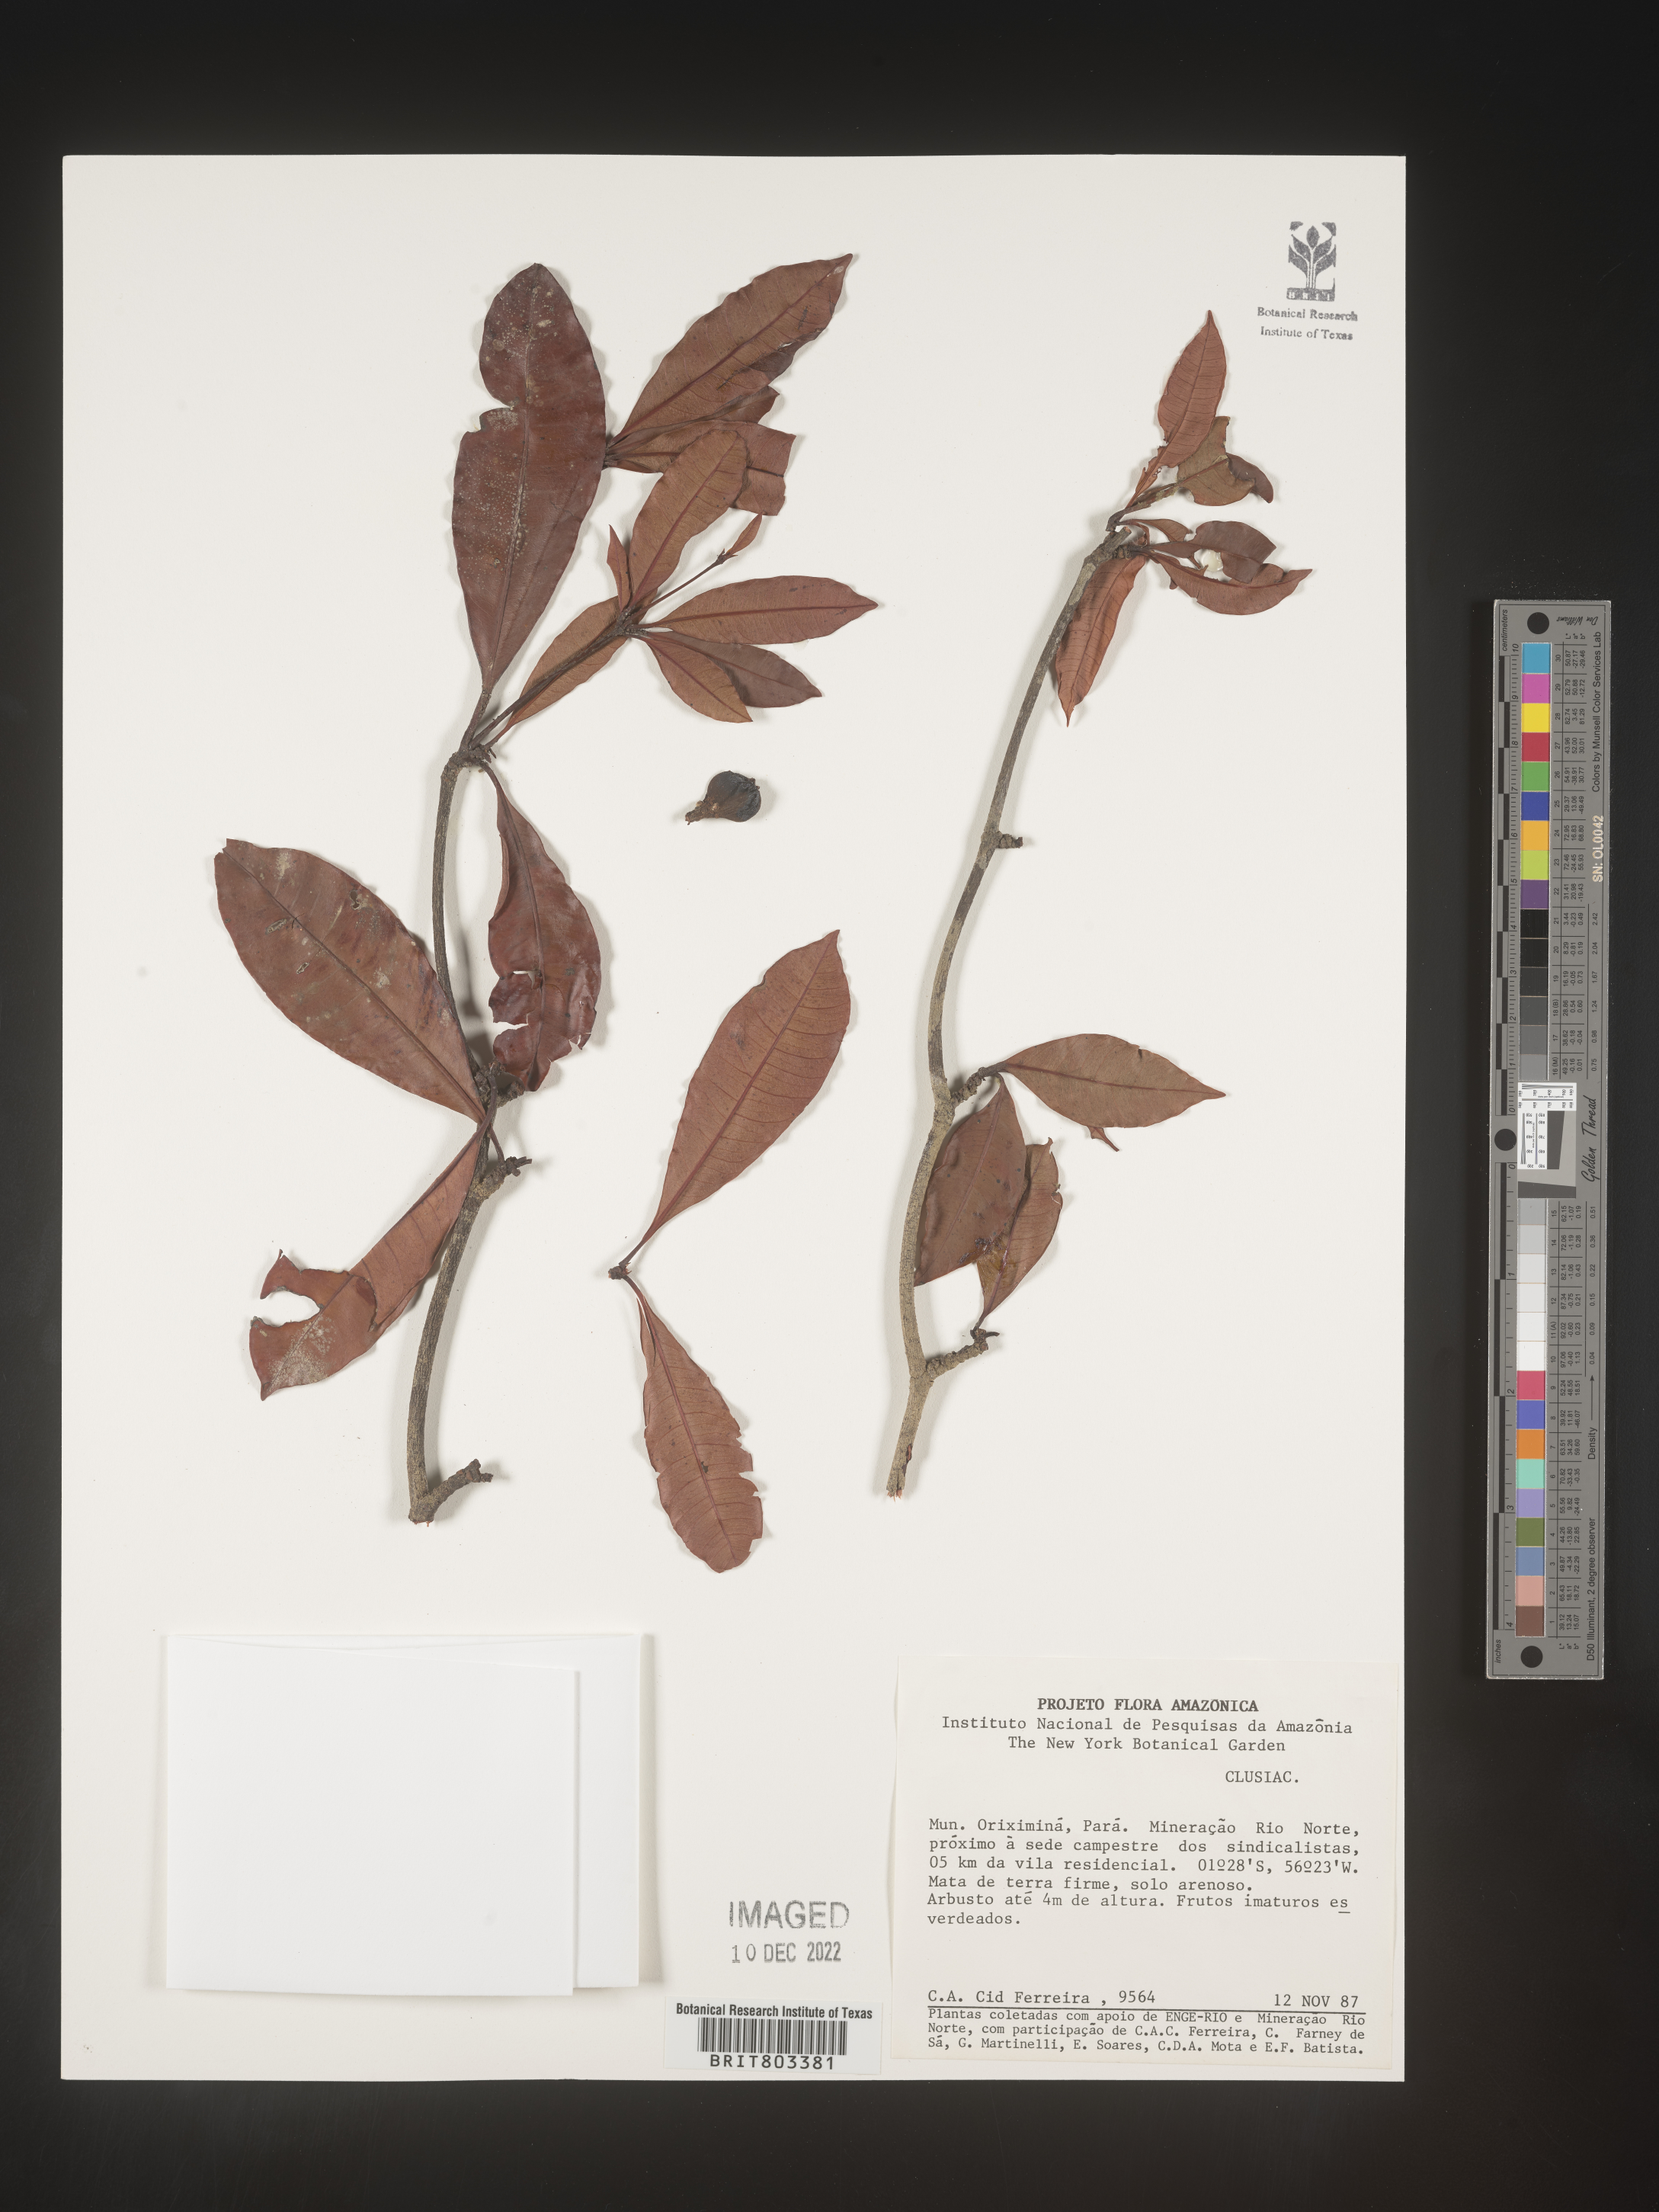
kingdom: Plantae
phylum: Tracheophyta
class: Magnoliopsida
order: Malpighiales
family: Clusiaceae
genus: Tovomita
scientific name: Tovomita
